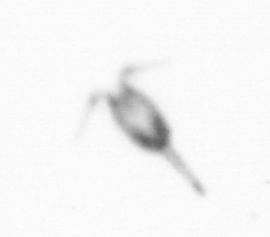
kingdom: Animalia
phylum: Arthropoda
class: Copepoda
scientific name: Copepoda
